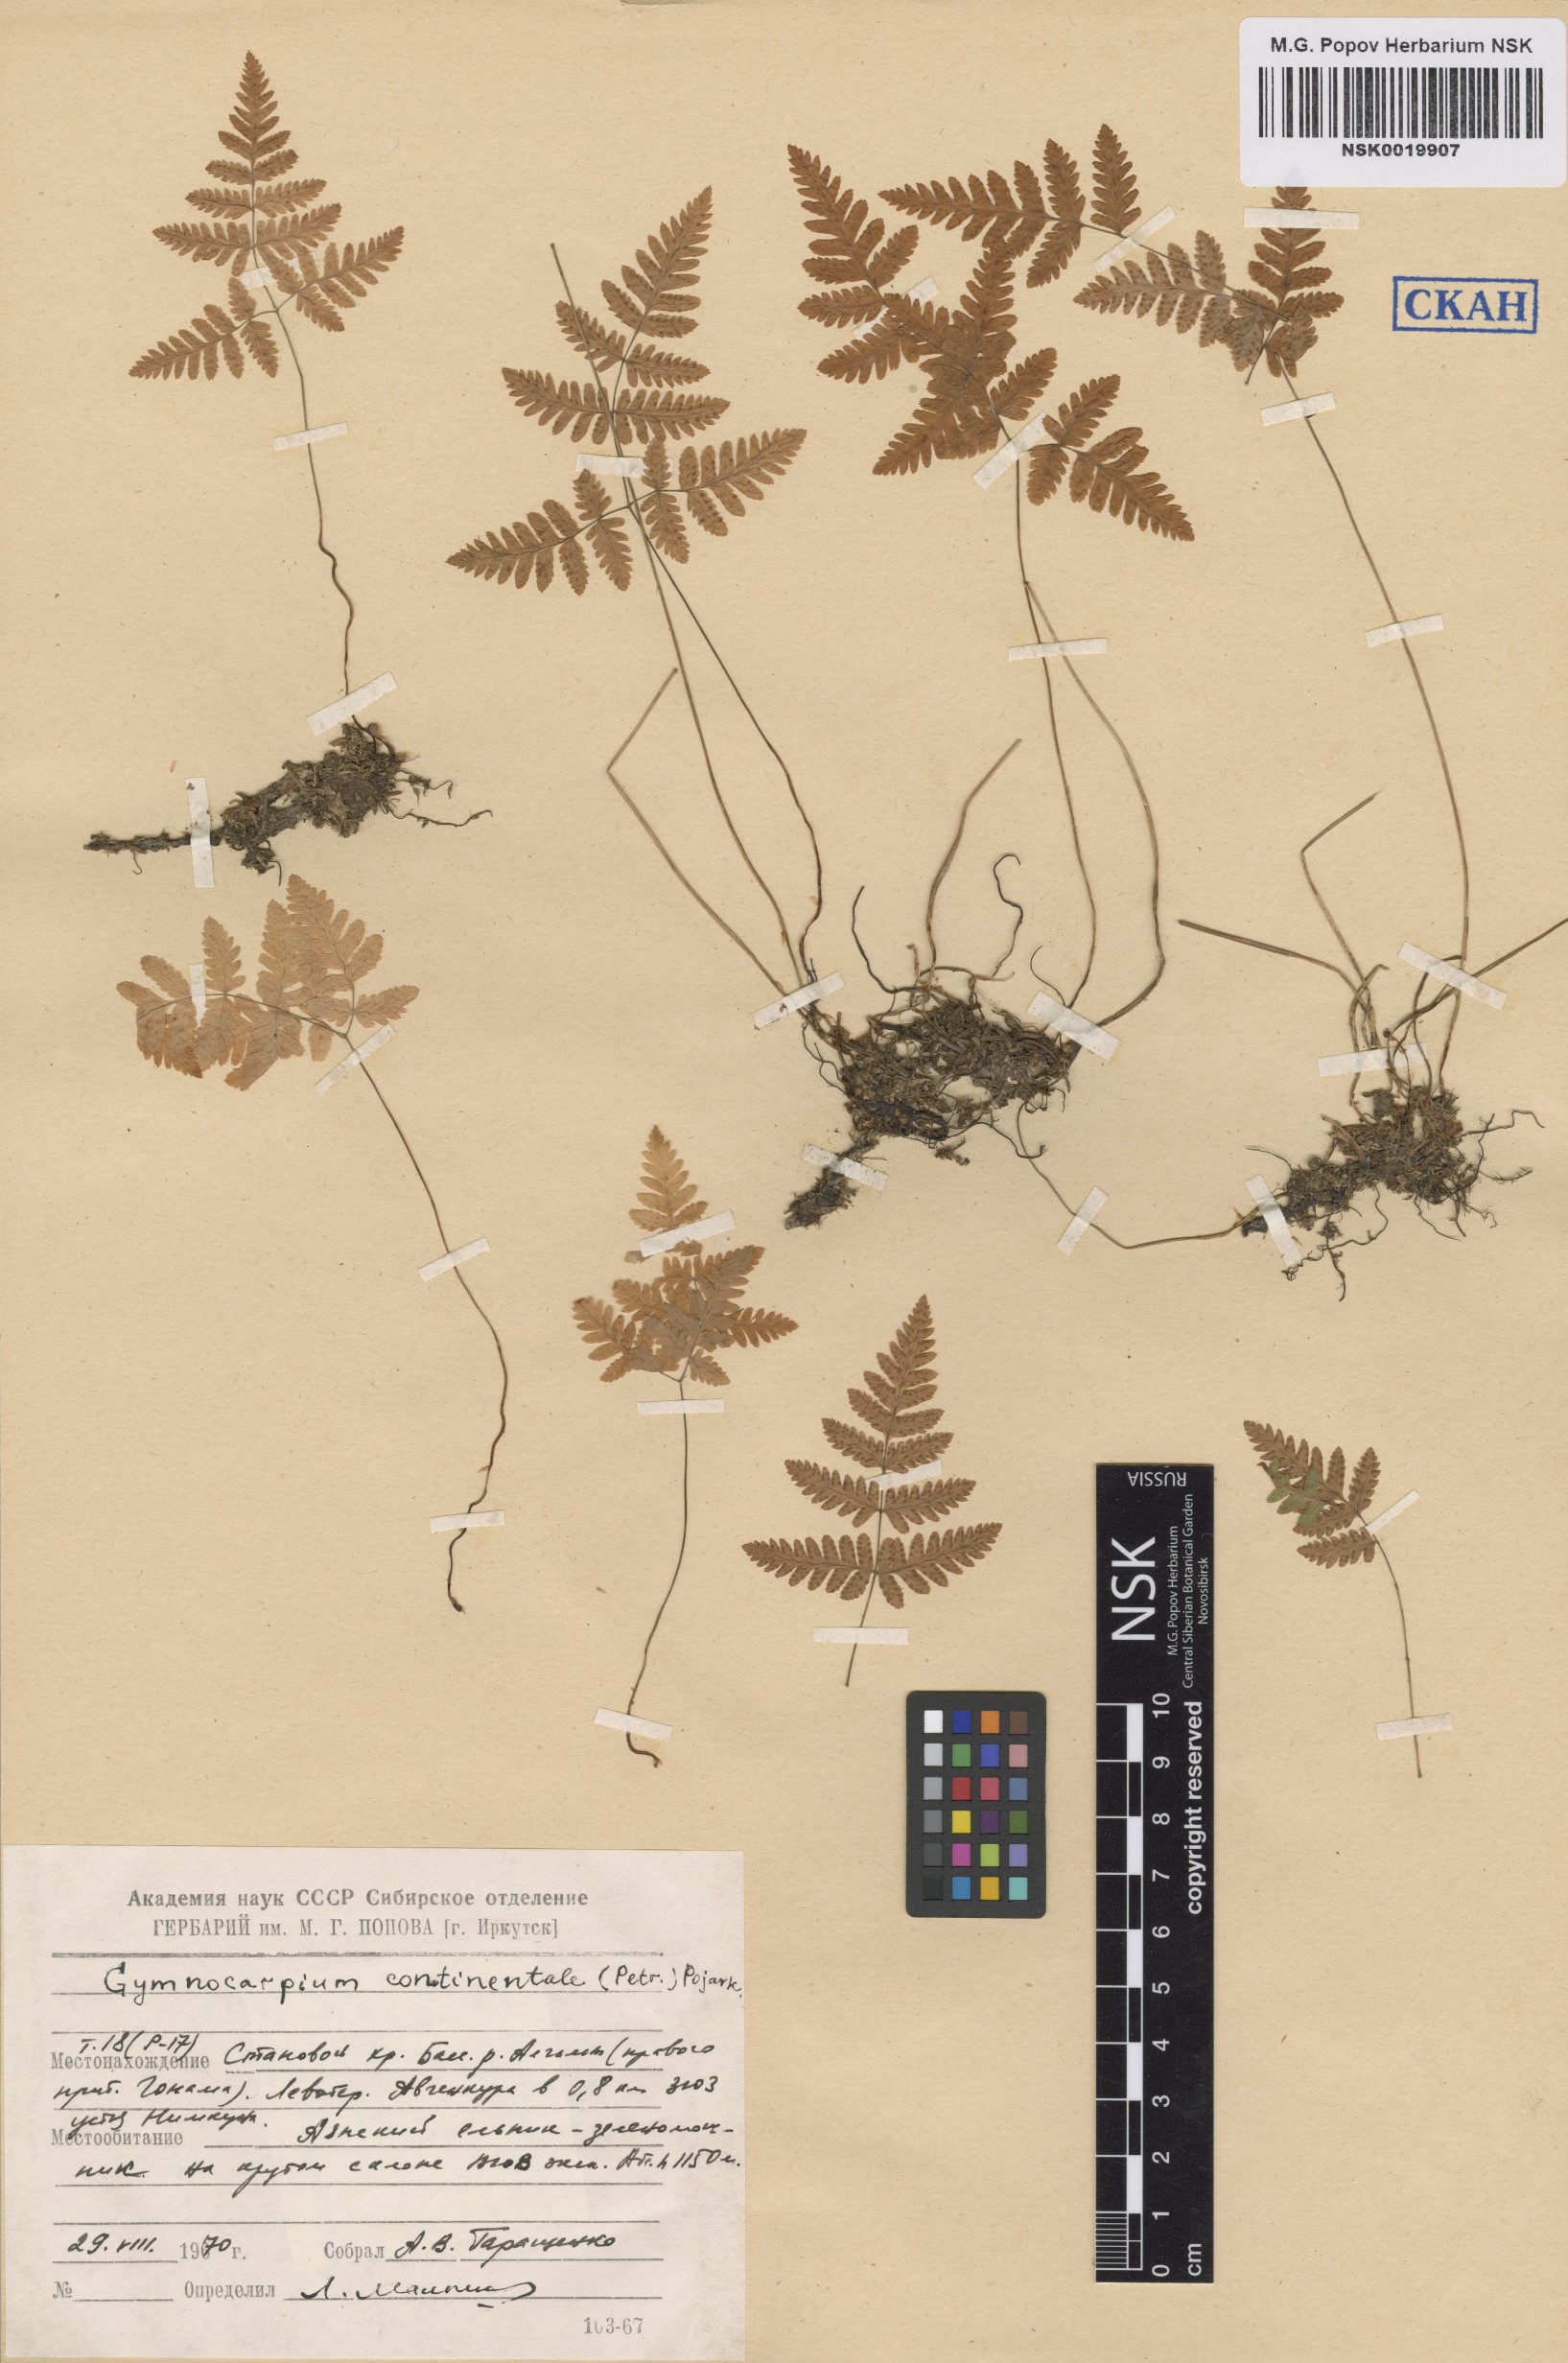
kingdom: Plantae
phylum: Tracheophyta
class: Polypodiopsida
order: Polypodiales
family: Cystopteridaceae
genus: Gymnocarpium
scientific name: Gymnocarpium continentale
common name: Asian oak fern
